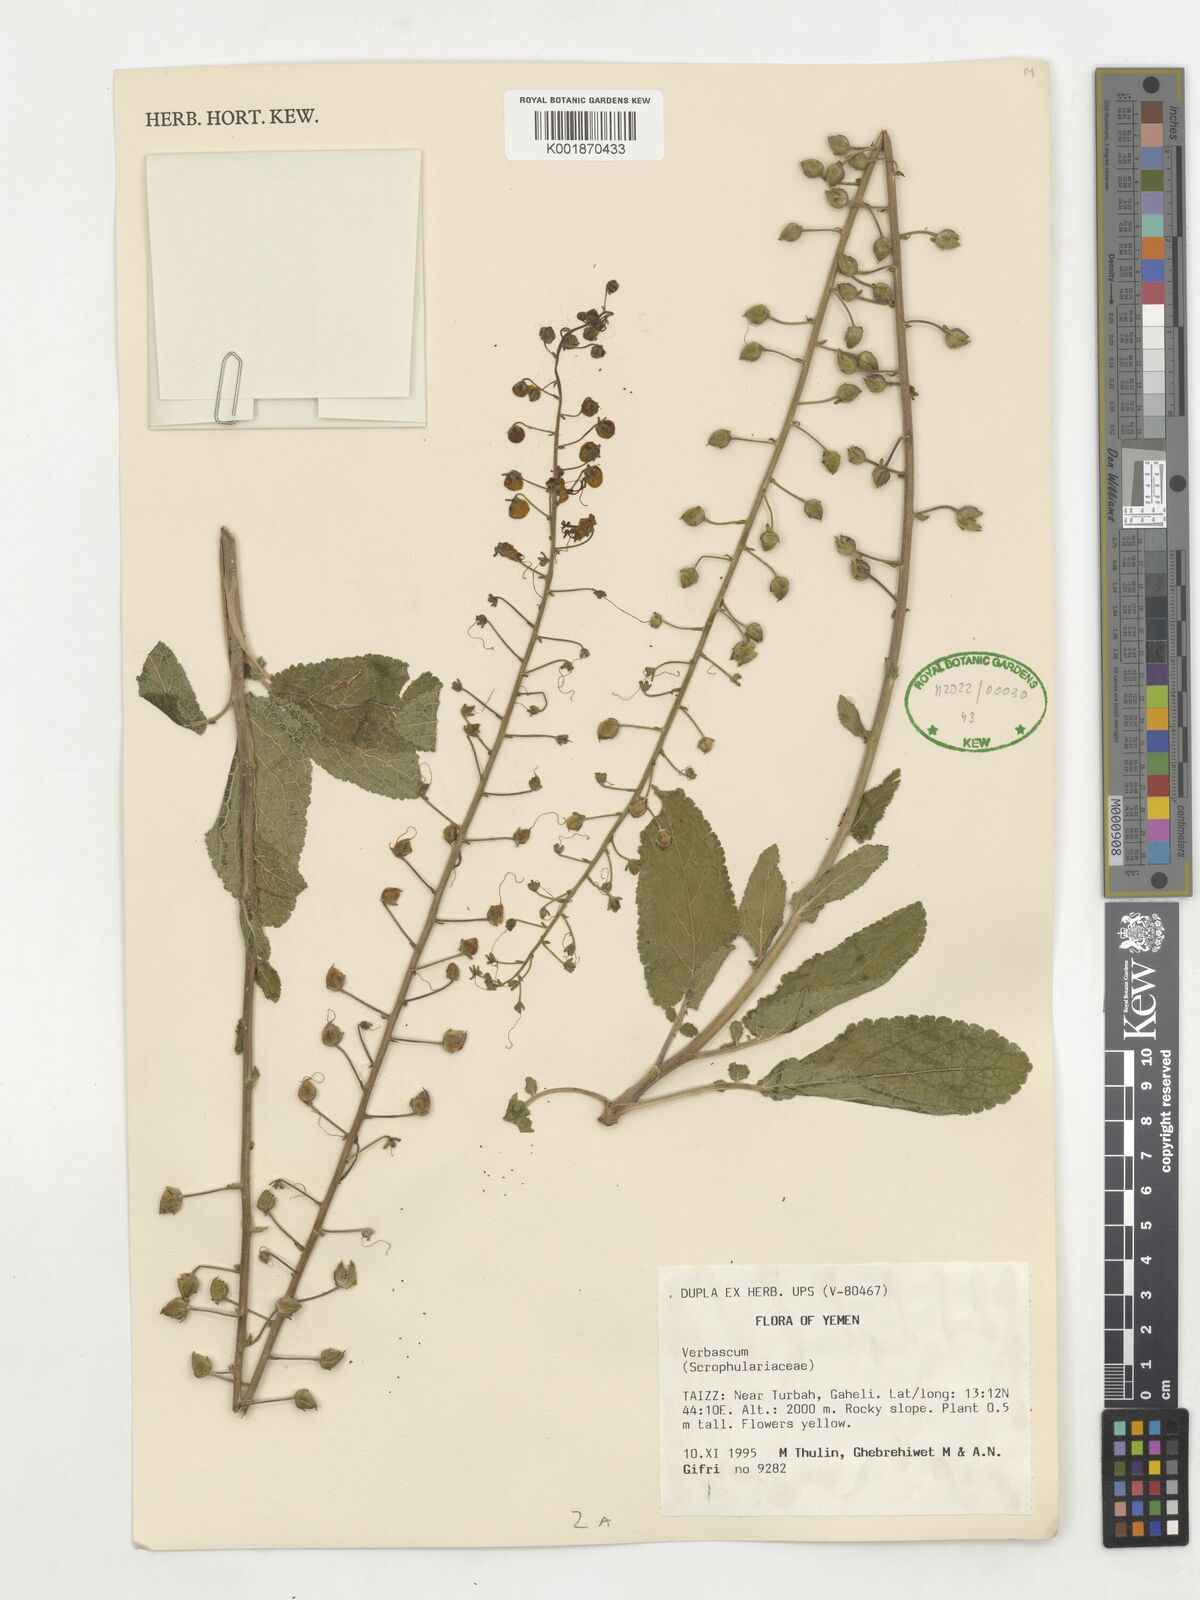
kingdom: Plantae
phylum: Tracheophyta
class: Magnoliopsida
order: Lamiales
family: Scrophulariaceae
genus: Verbascum
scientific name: Verbascum
